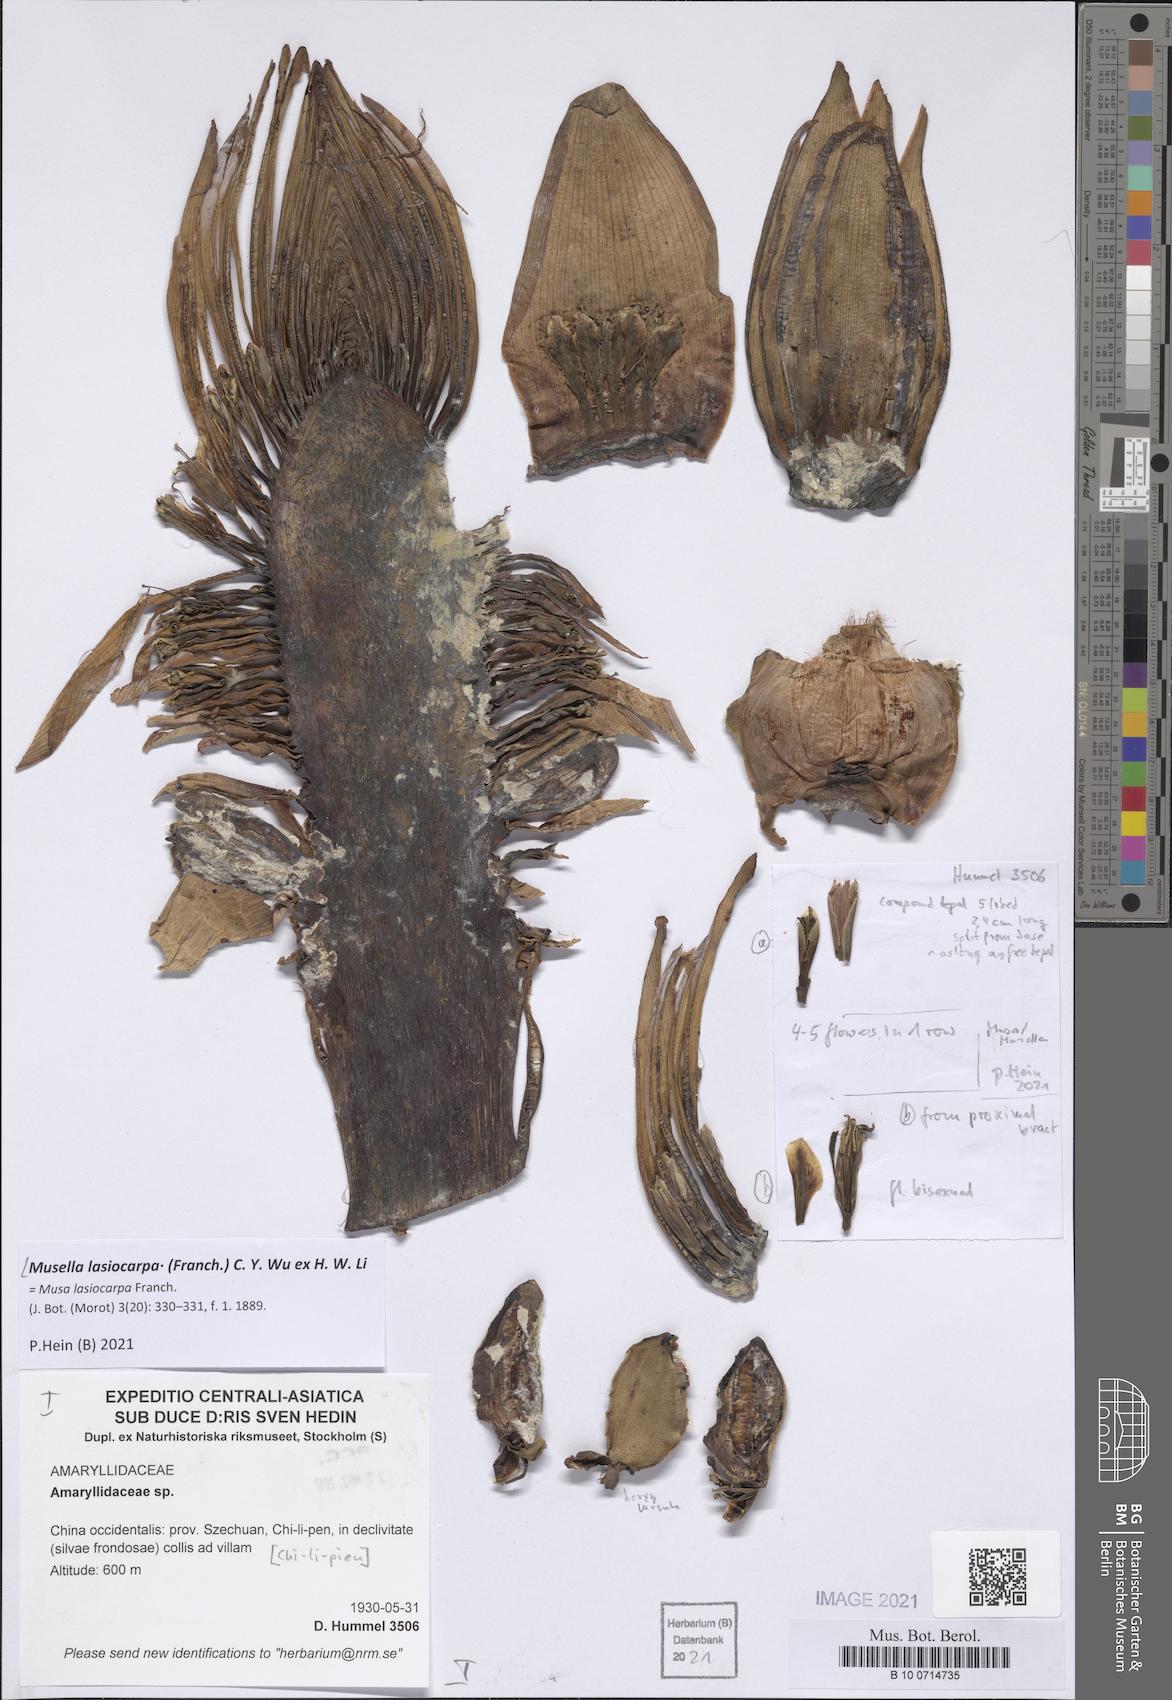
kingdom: Plantae
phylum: Tracheophyta
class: Liliopsida
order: Zingiberales
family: Musaceae
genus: Musella
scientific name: Musella lasiocarpa
